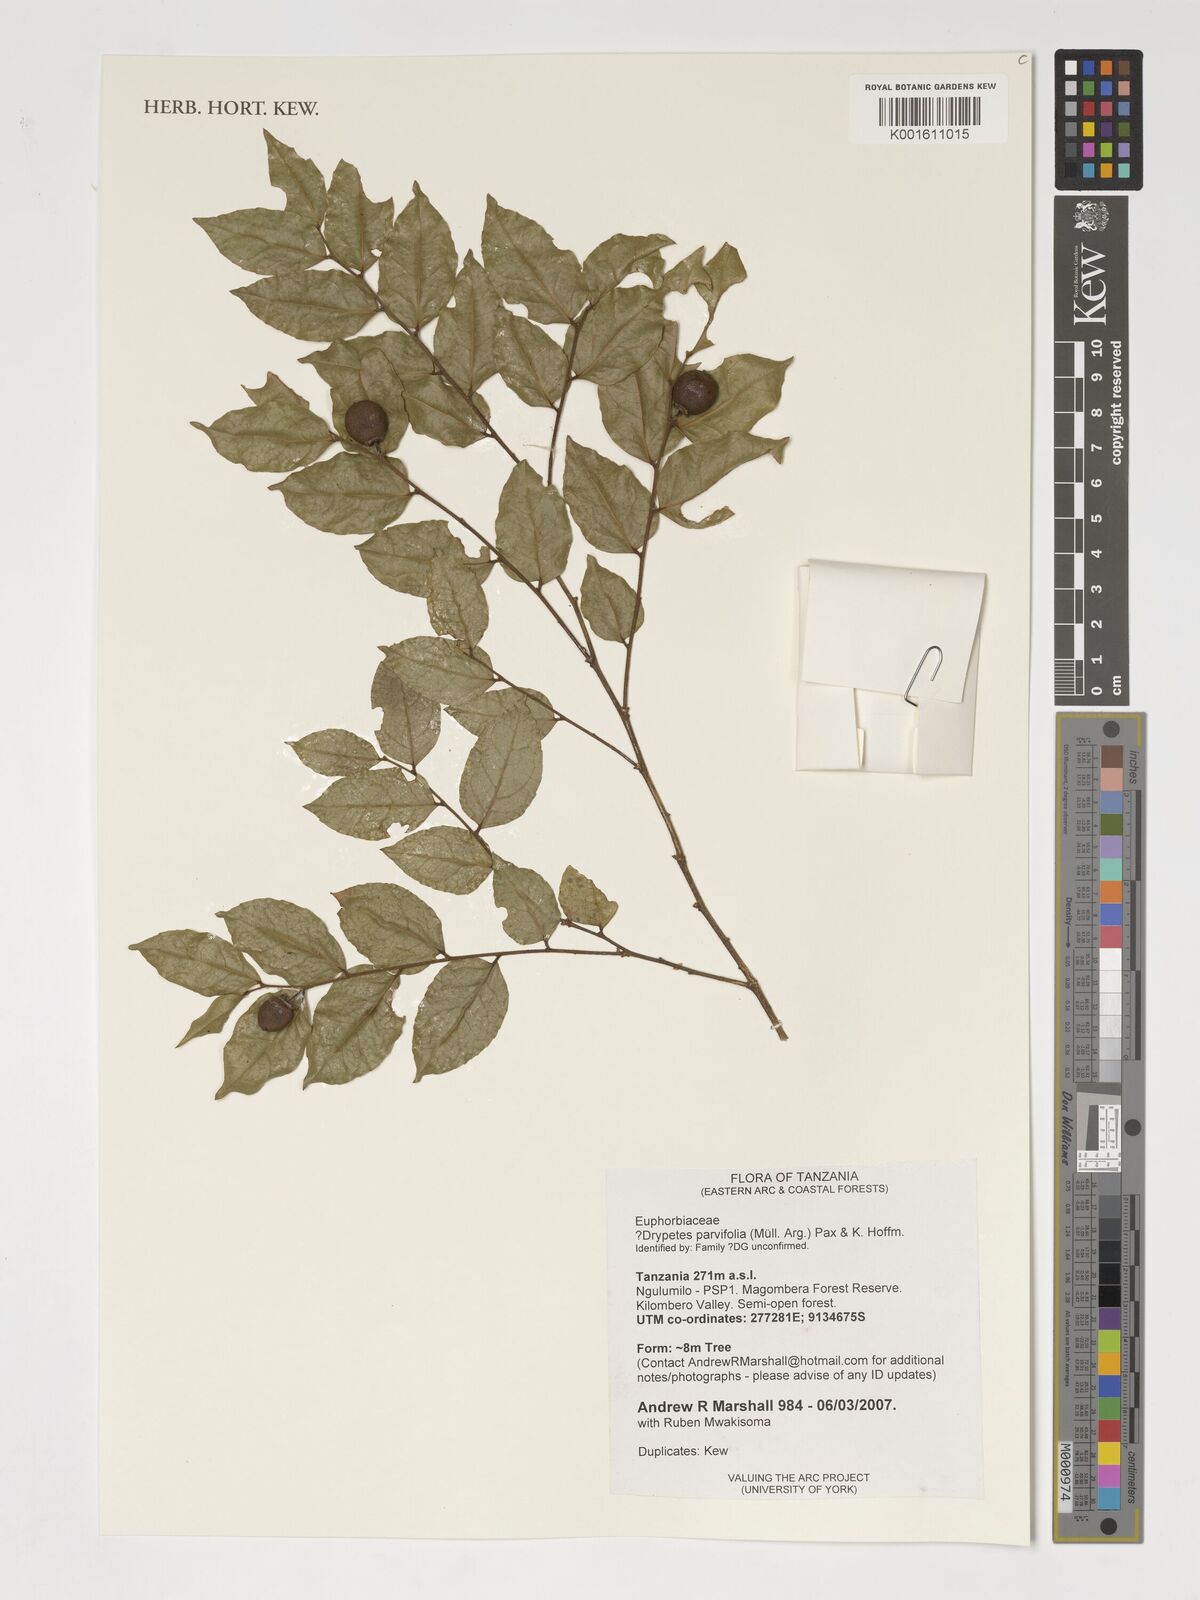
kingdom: Plantae
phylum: Tracheophyta
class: Magnoliopsida
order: Malpighiales
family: Putranjivaceae
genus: Drypetes
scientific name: Drypetes parvifolia
